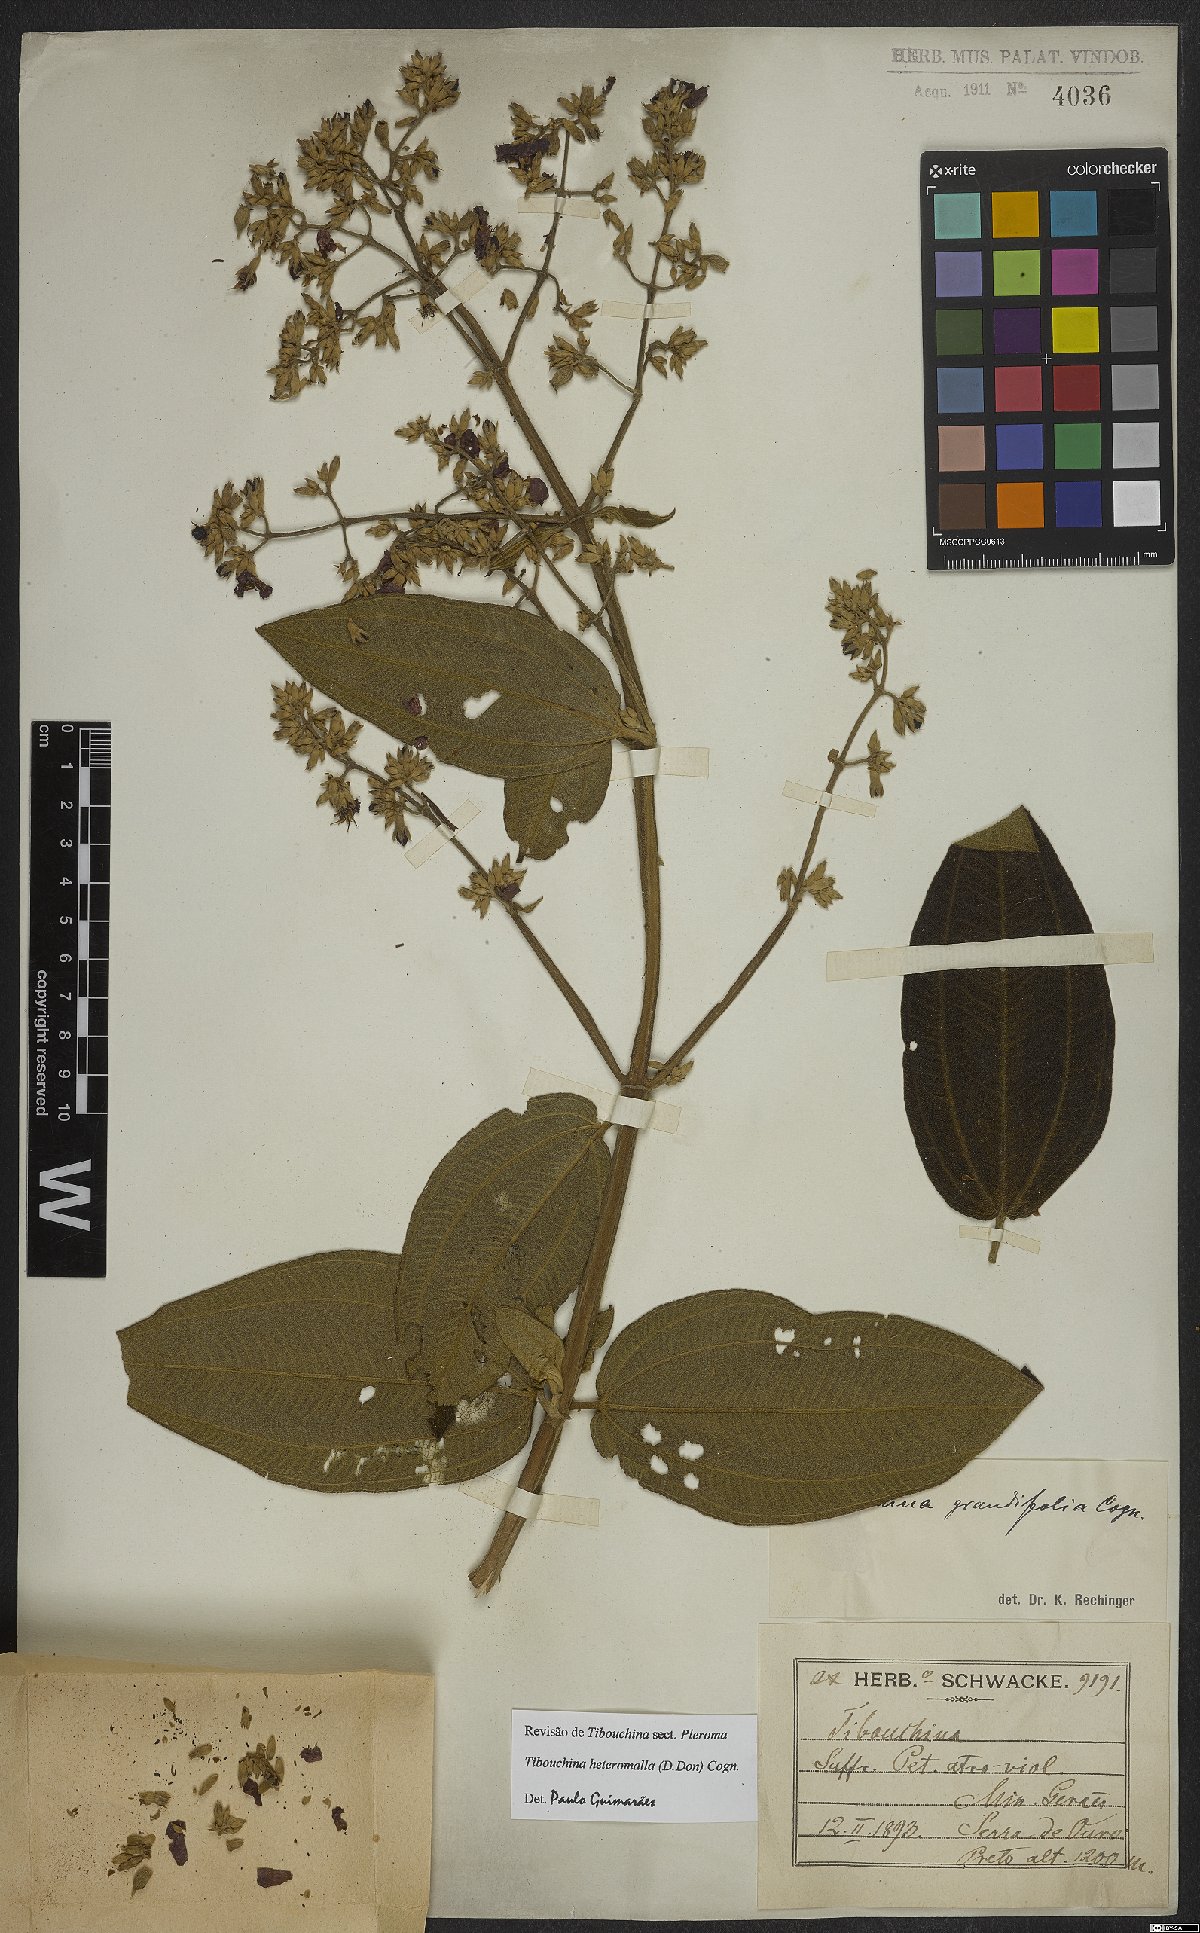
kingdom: Plantae
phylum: Tracheophyta
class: Magnoliopsida
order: Myrtales
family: Melastomataceae
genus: Pleroma
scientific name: Pleroma heteromallum
